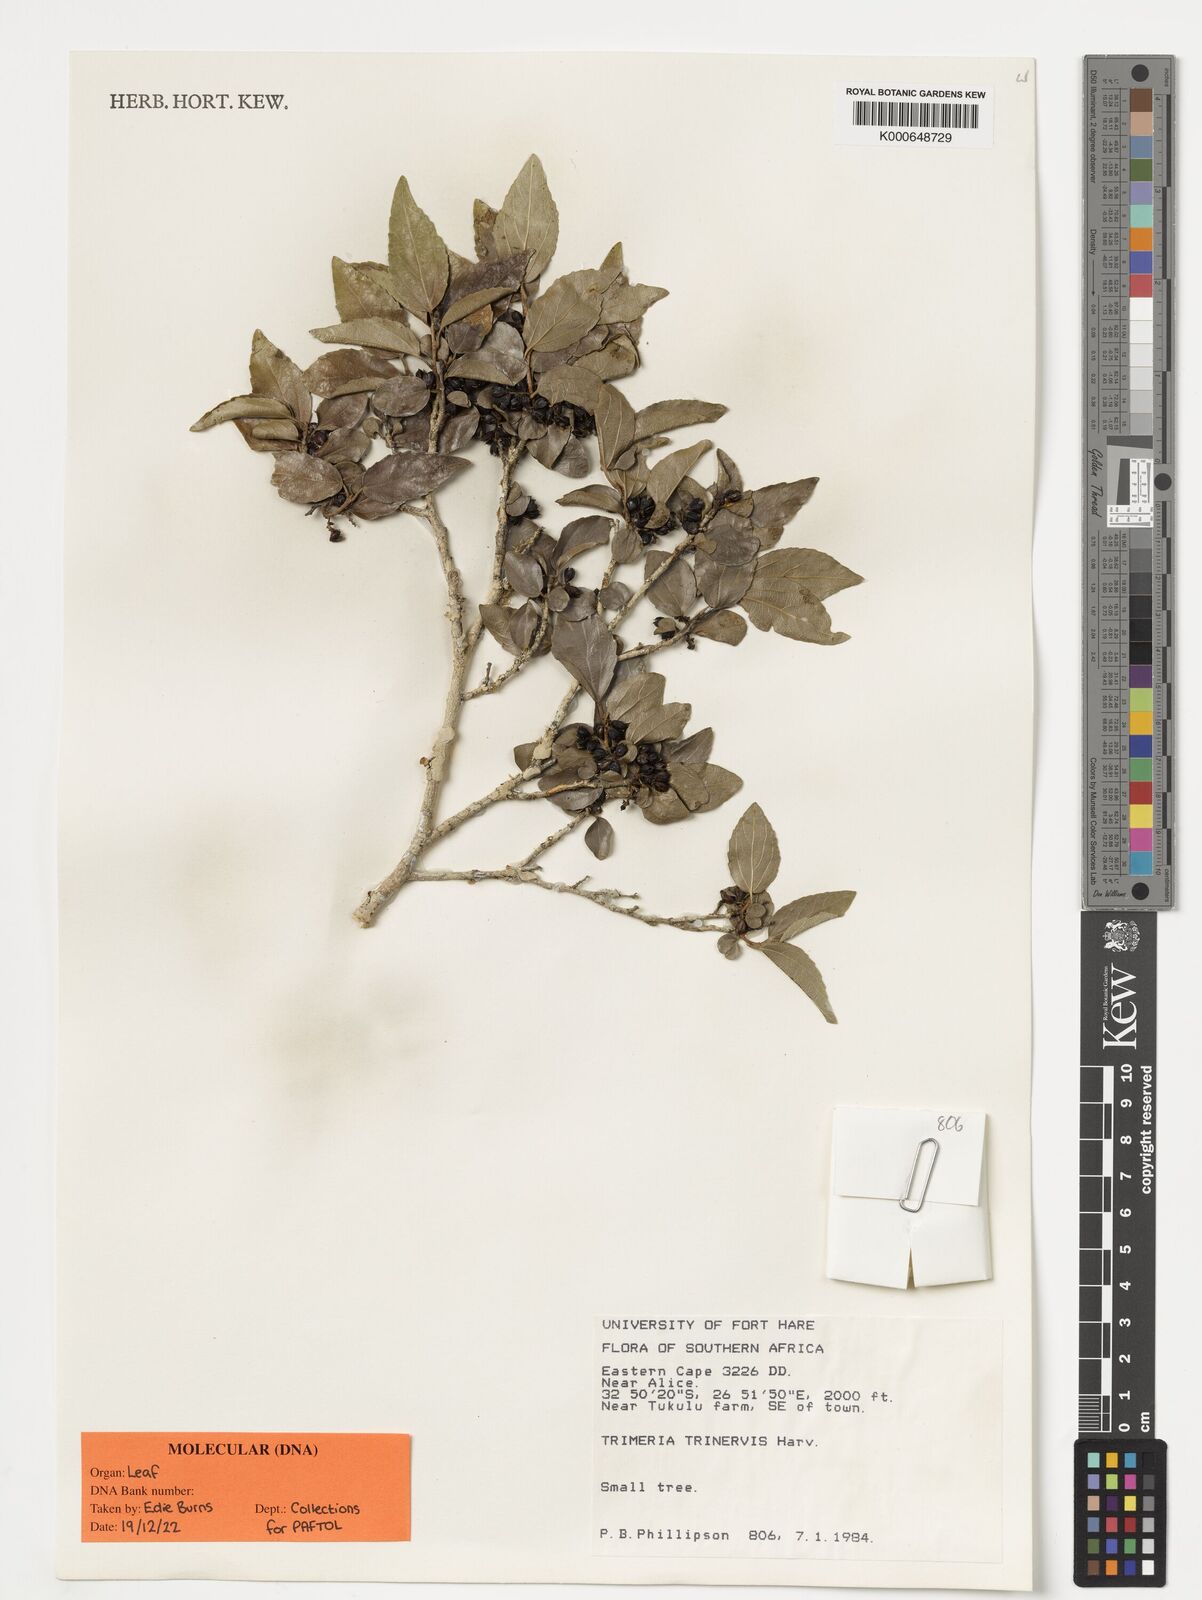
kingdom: Plantae
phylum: Tracheophyta
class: Magnoliopsida
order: Malpighiales
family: Salicaceae
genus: Trimeria
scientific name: Trimeria trinervis
